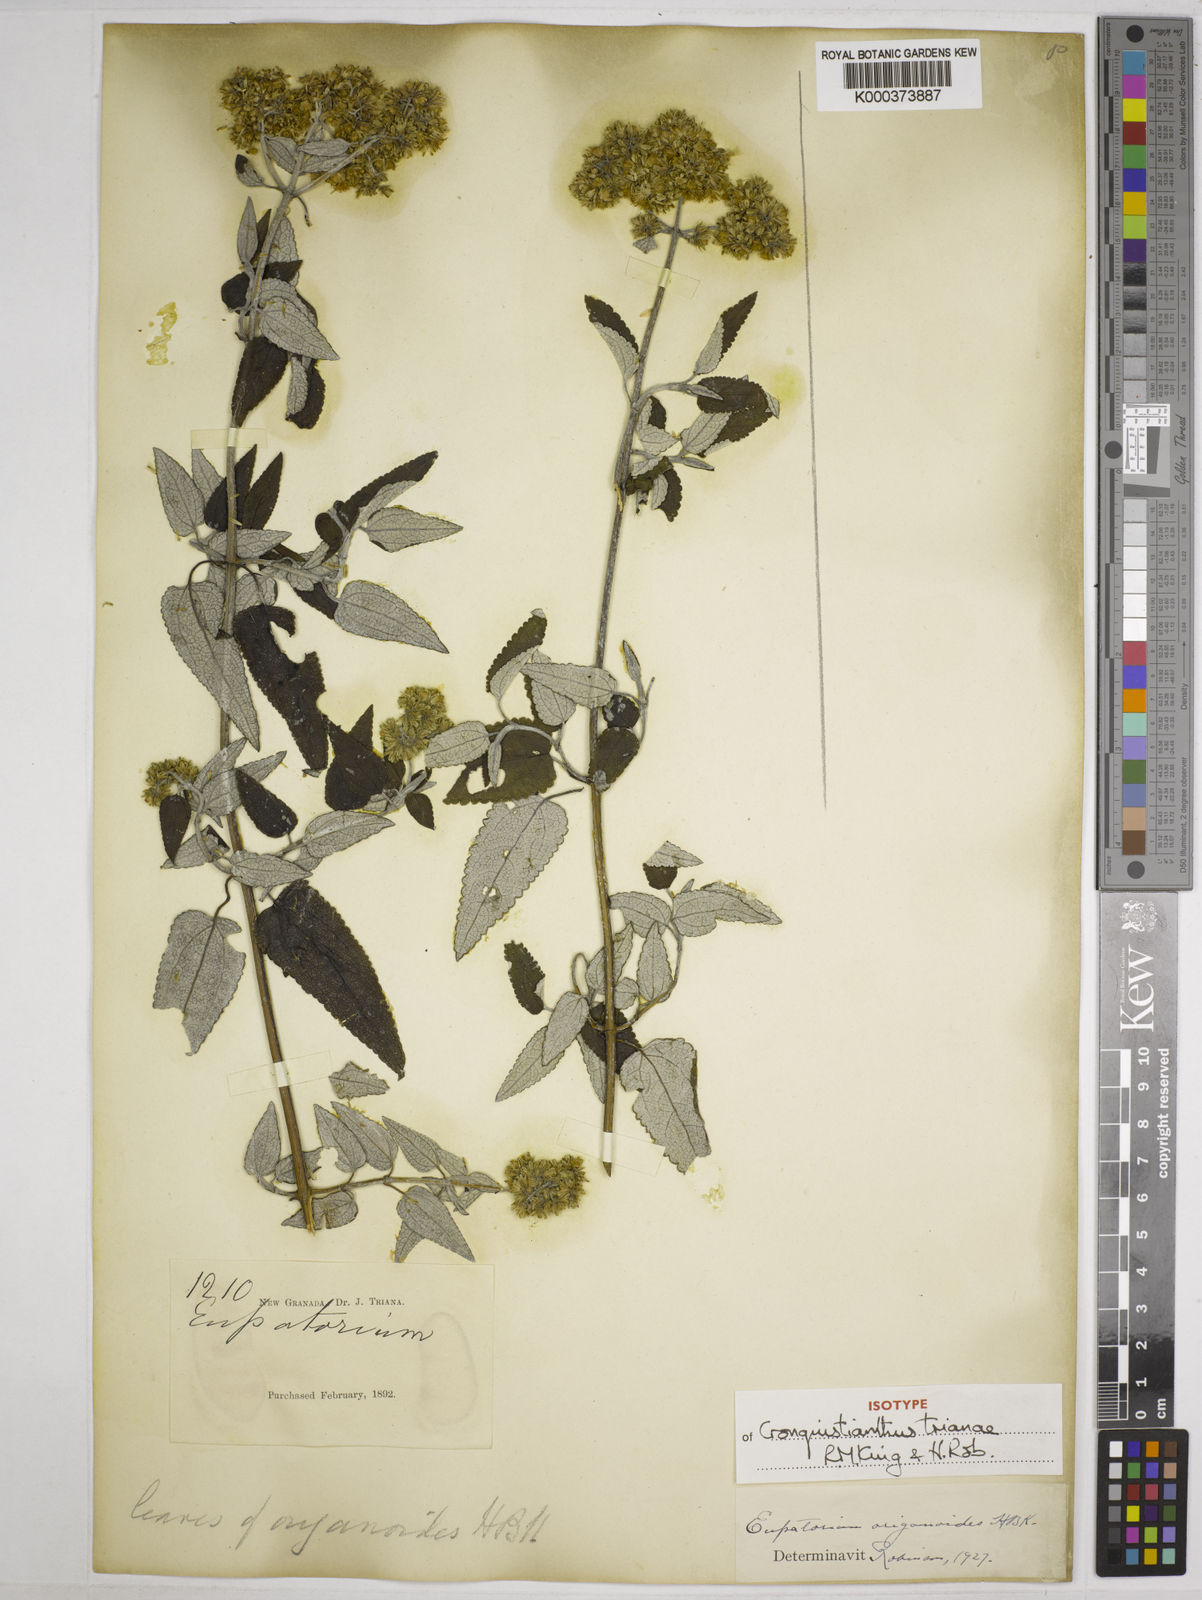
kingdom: Plantae
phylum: Tracheophyta
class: Magnoliopsida
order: Asterales
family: Asteraceae
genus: Cronquistianthus
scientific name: Cronquistianthus trianae
